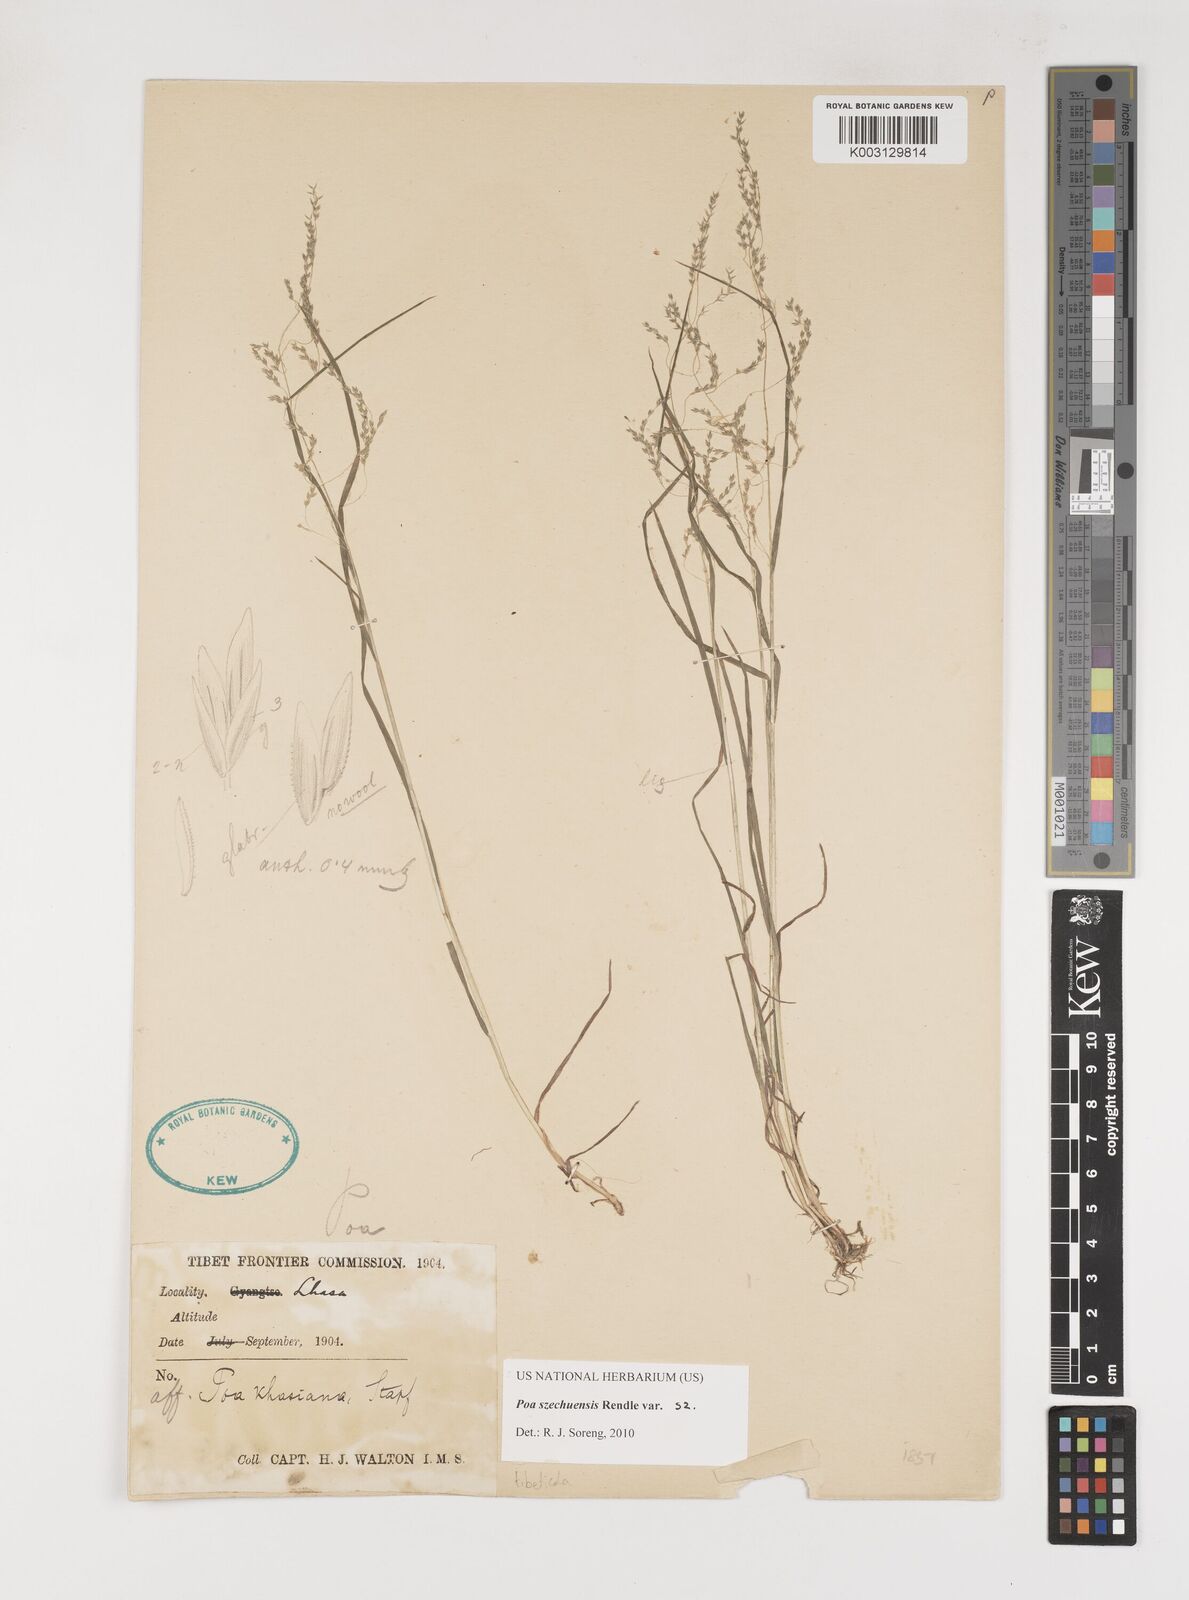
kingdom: Plantae
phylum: Tracheophyta
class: Liliopsida
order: Poales
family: Poaceae
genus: Poa
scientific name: Poa szechuensis
